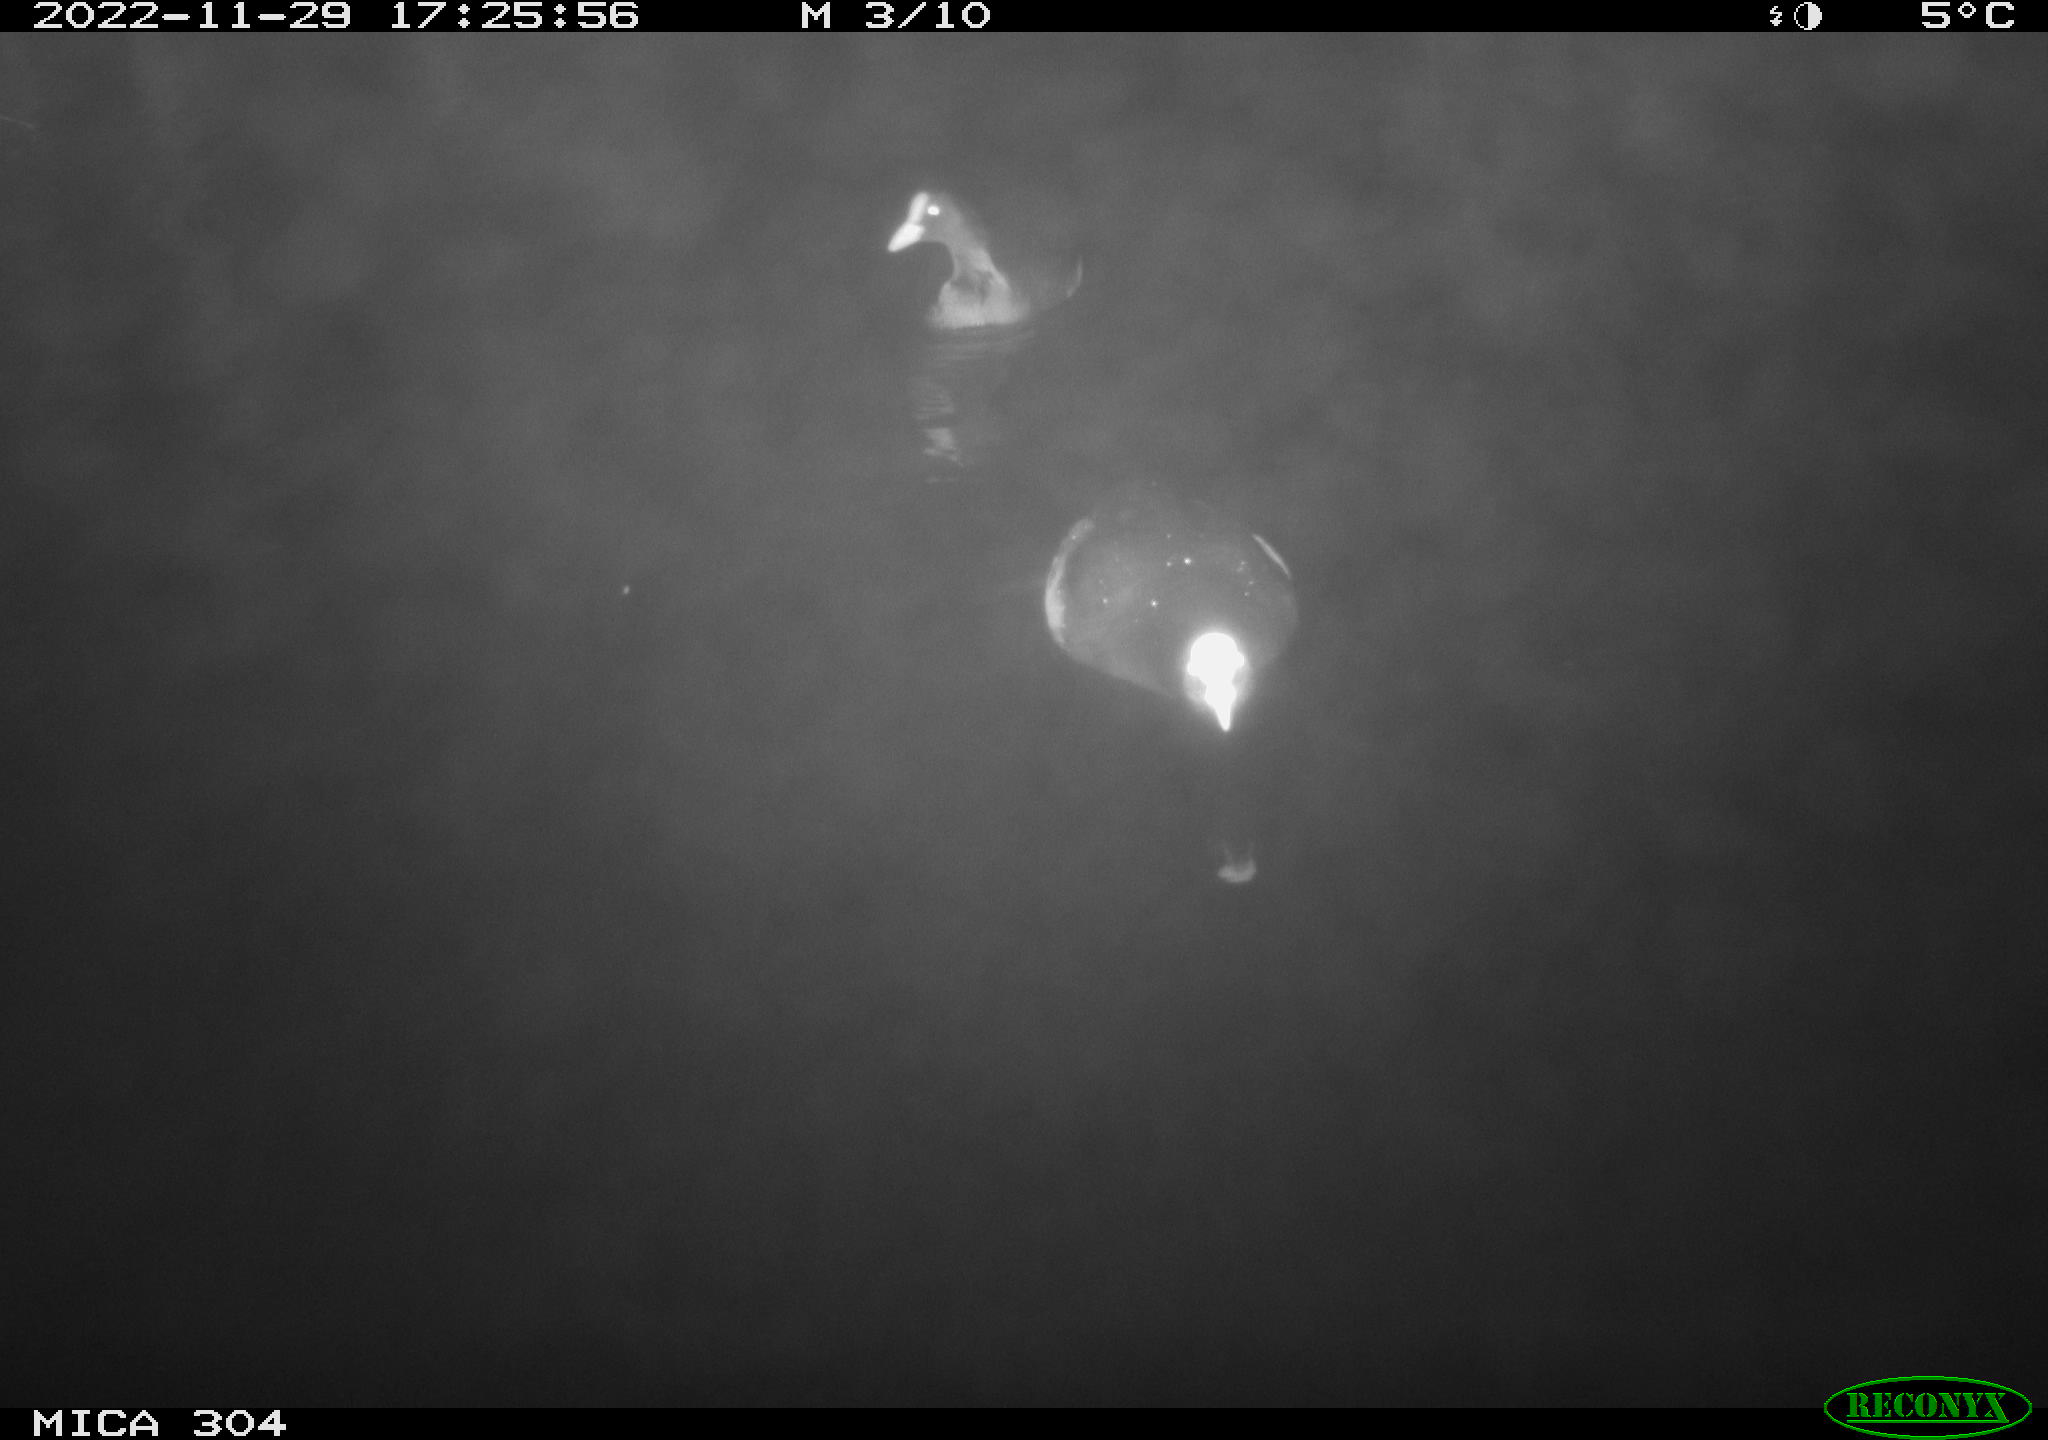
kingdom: Animalia
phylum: Chordata
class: Aves
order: Anseriformes
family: Anatidae
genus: Anas
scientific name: Anas
